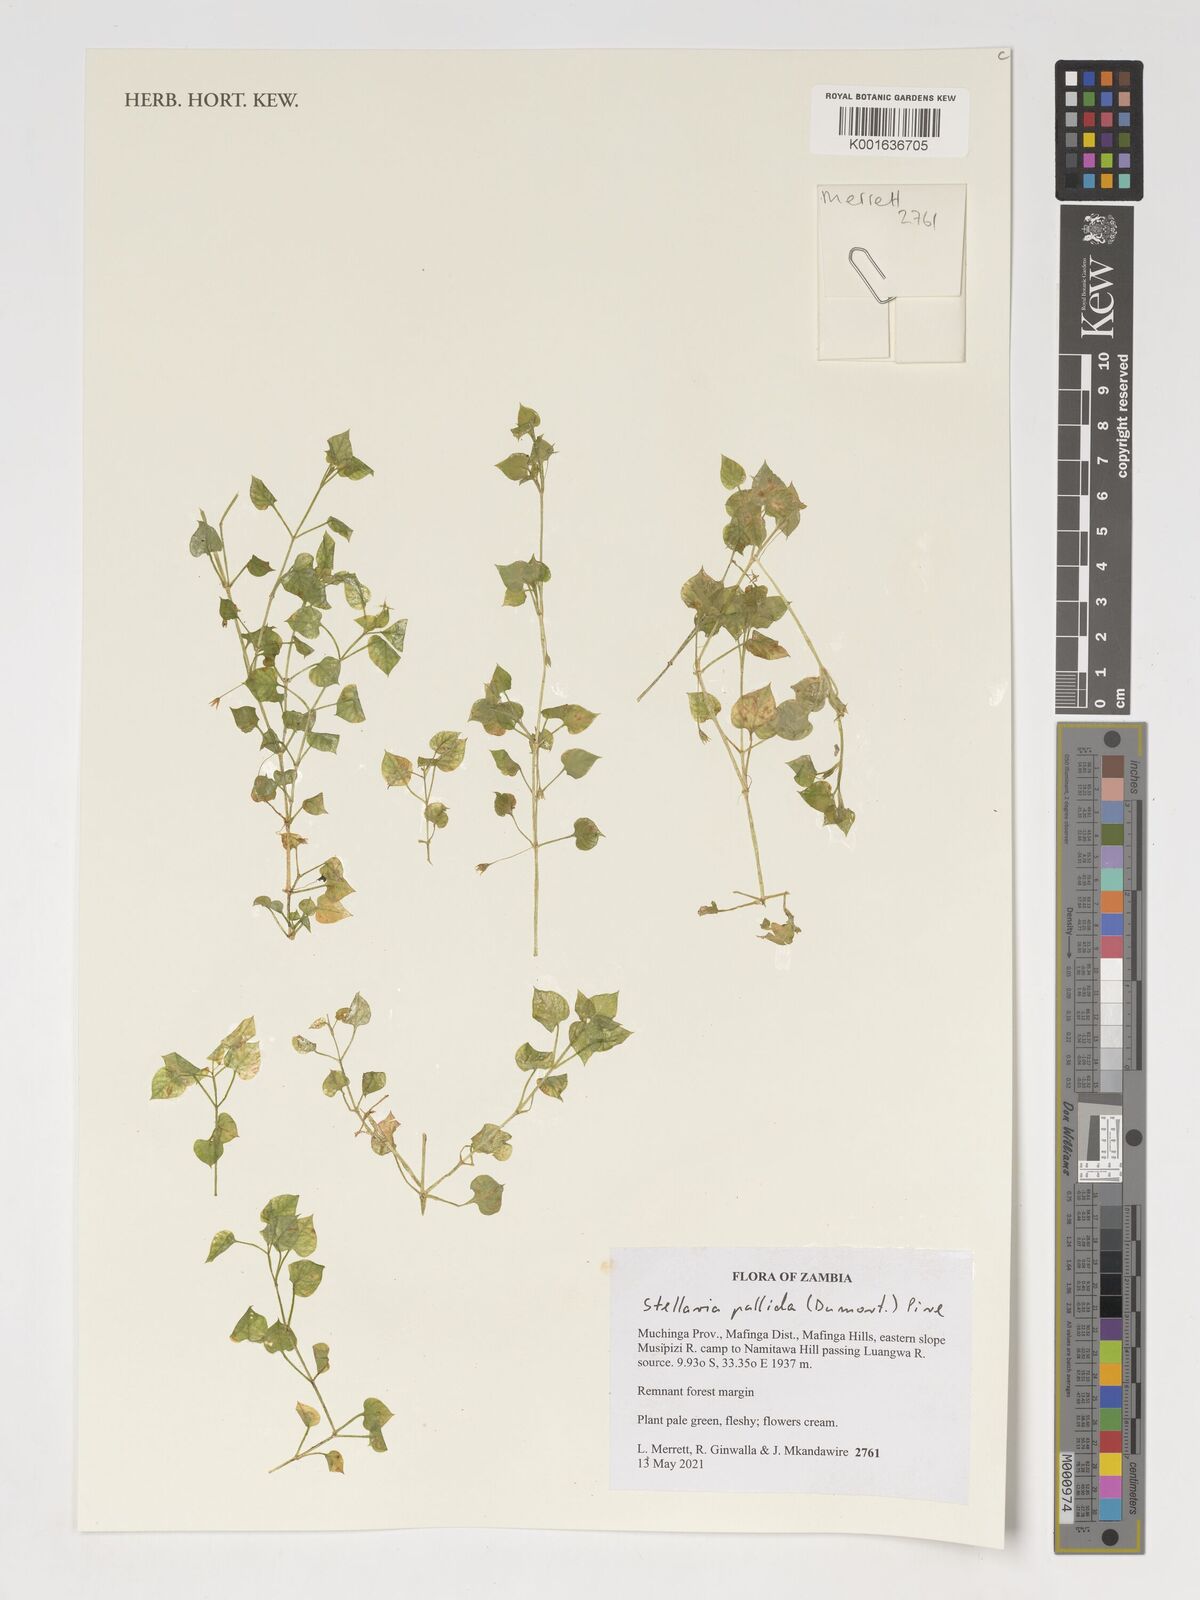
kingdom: Plantae
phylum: Tracheophyta
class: Magnoliopsida
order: Caryophyllales
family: Caryophyllaceae
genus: Stellaria
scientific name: Stellaria apetala
